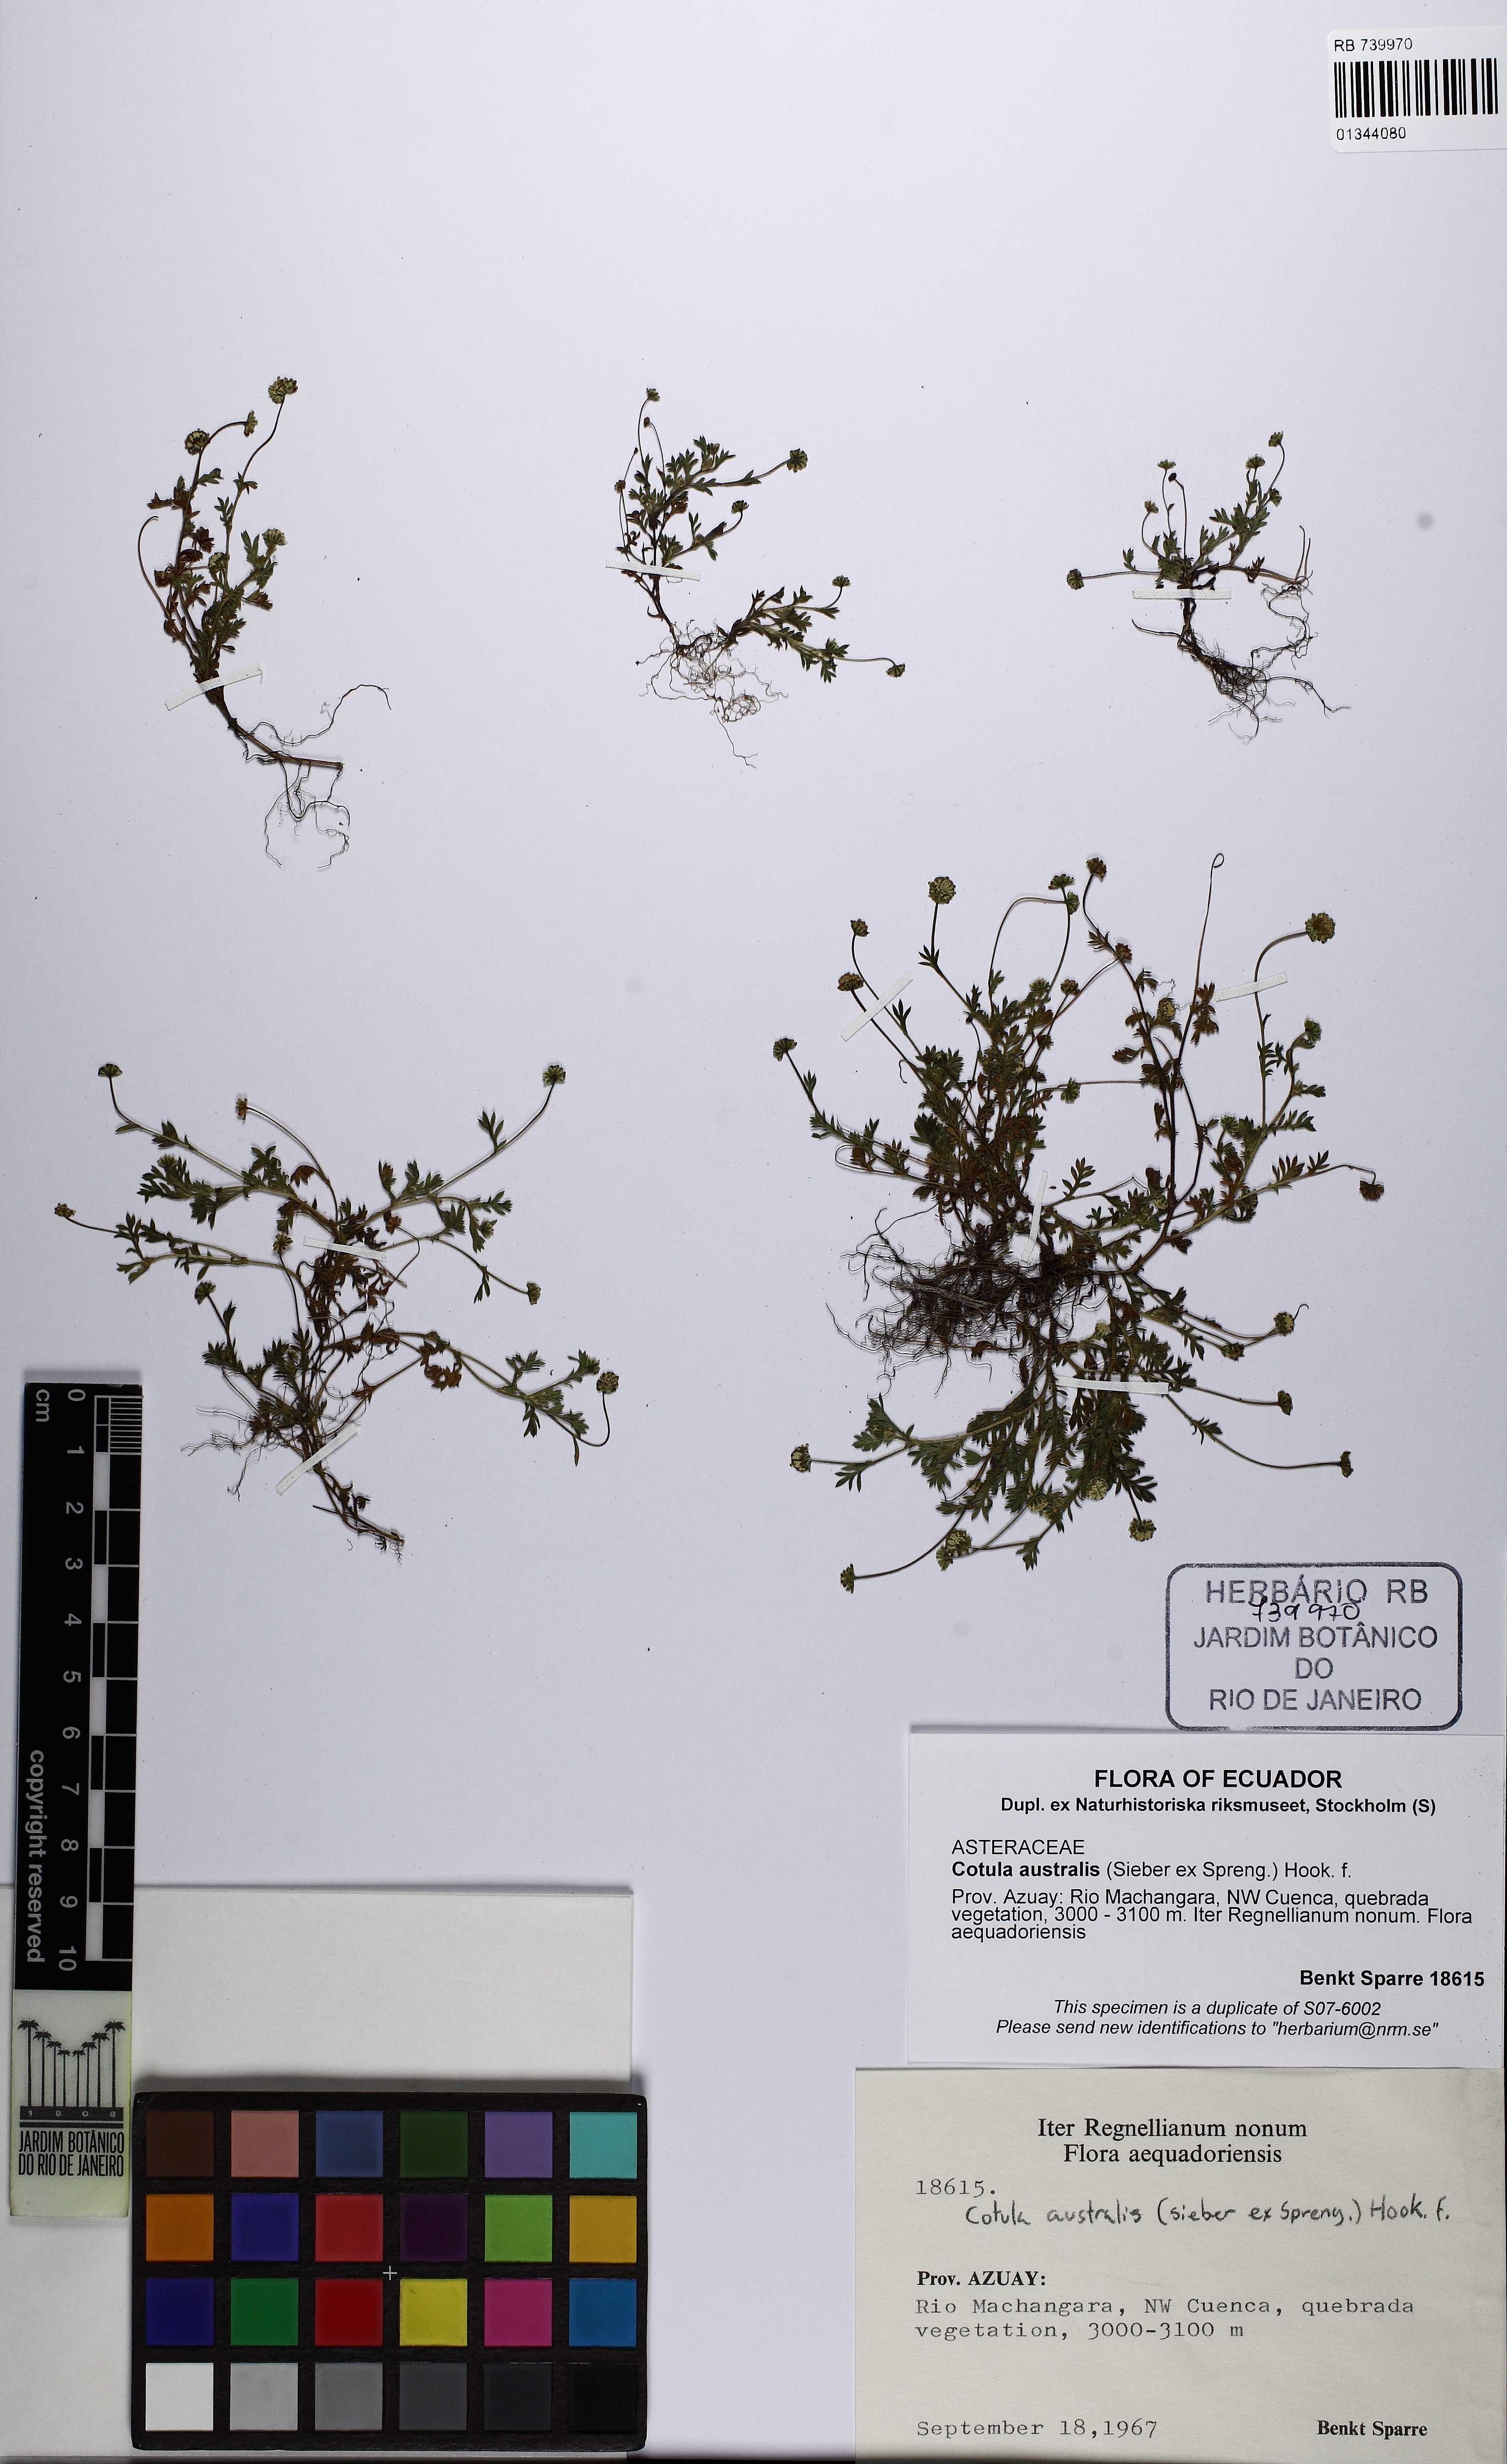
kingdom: Plantae
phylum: Tracheophyta
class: Magnoliopsida
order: Asterales
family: Asteraceae
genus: Cotula
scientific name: Cotula australis
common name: Australian waterbuttons
